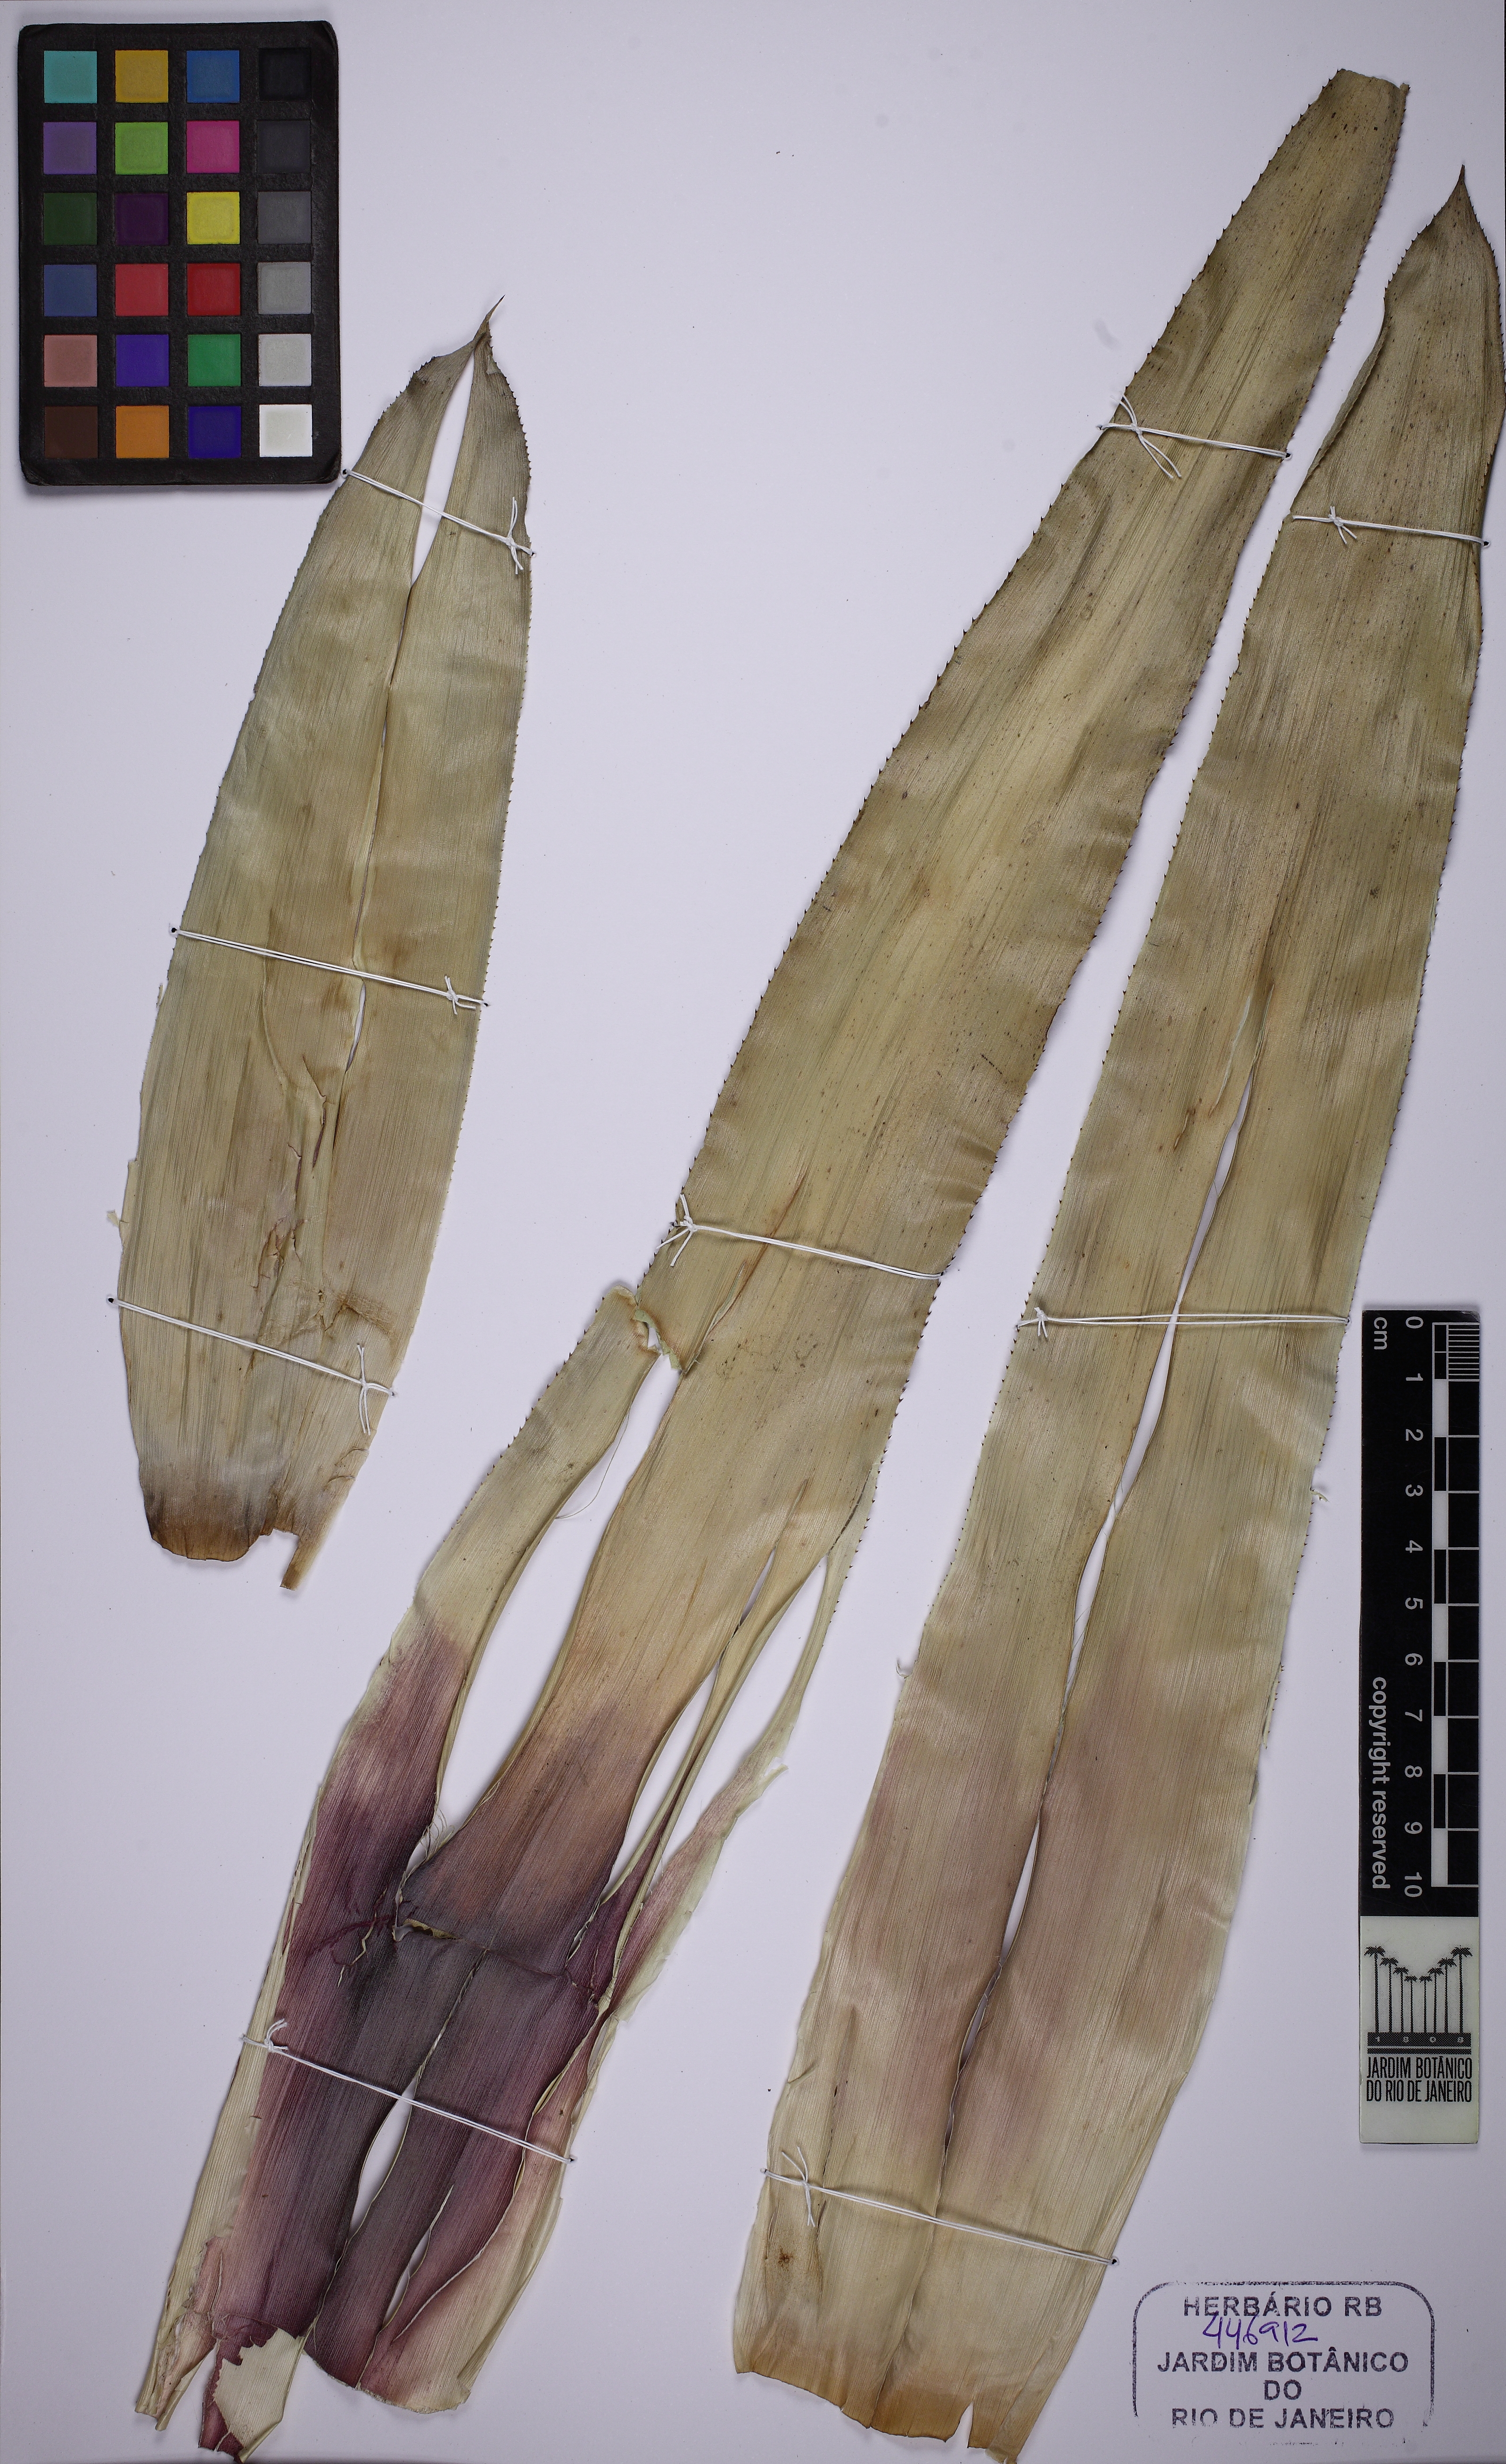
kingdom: Plantae
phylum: Tracheophyta
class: Liliopsida
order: Poales
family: Bromeliaceae
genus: Quesnelia
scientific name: Quesnelia liboniana
